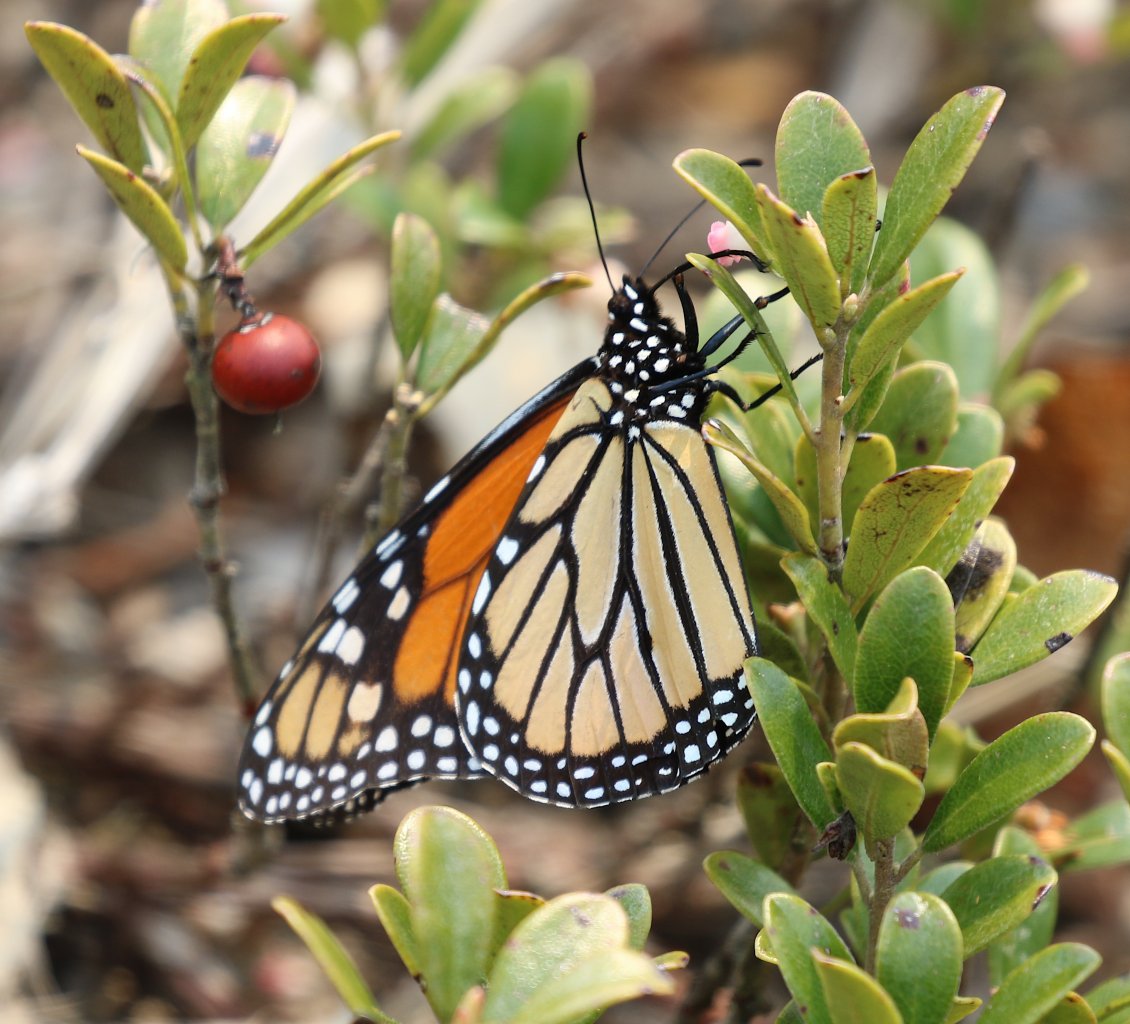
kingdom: Animalia
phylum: Arthropoda
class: Insecta
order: Lepidoptera
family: Nymphalidae
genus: Danaus
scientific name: Danaus plexippus
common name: Monarch
